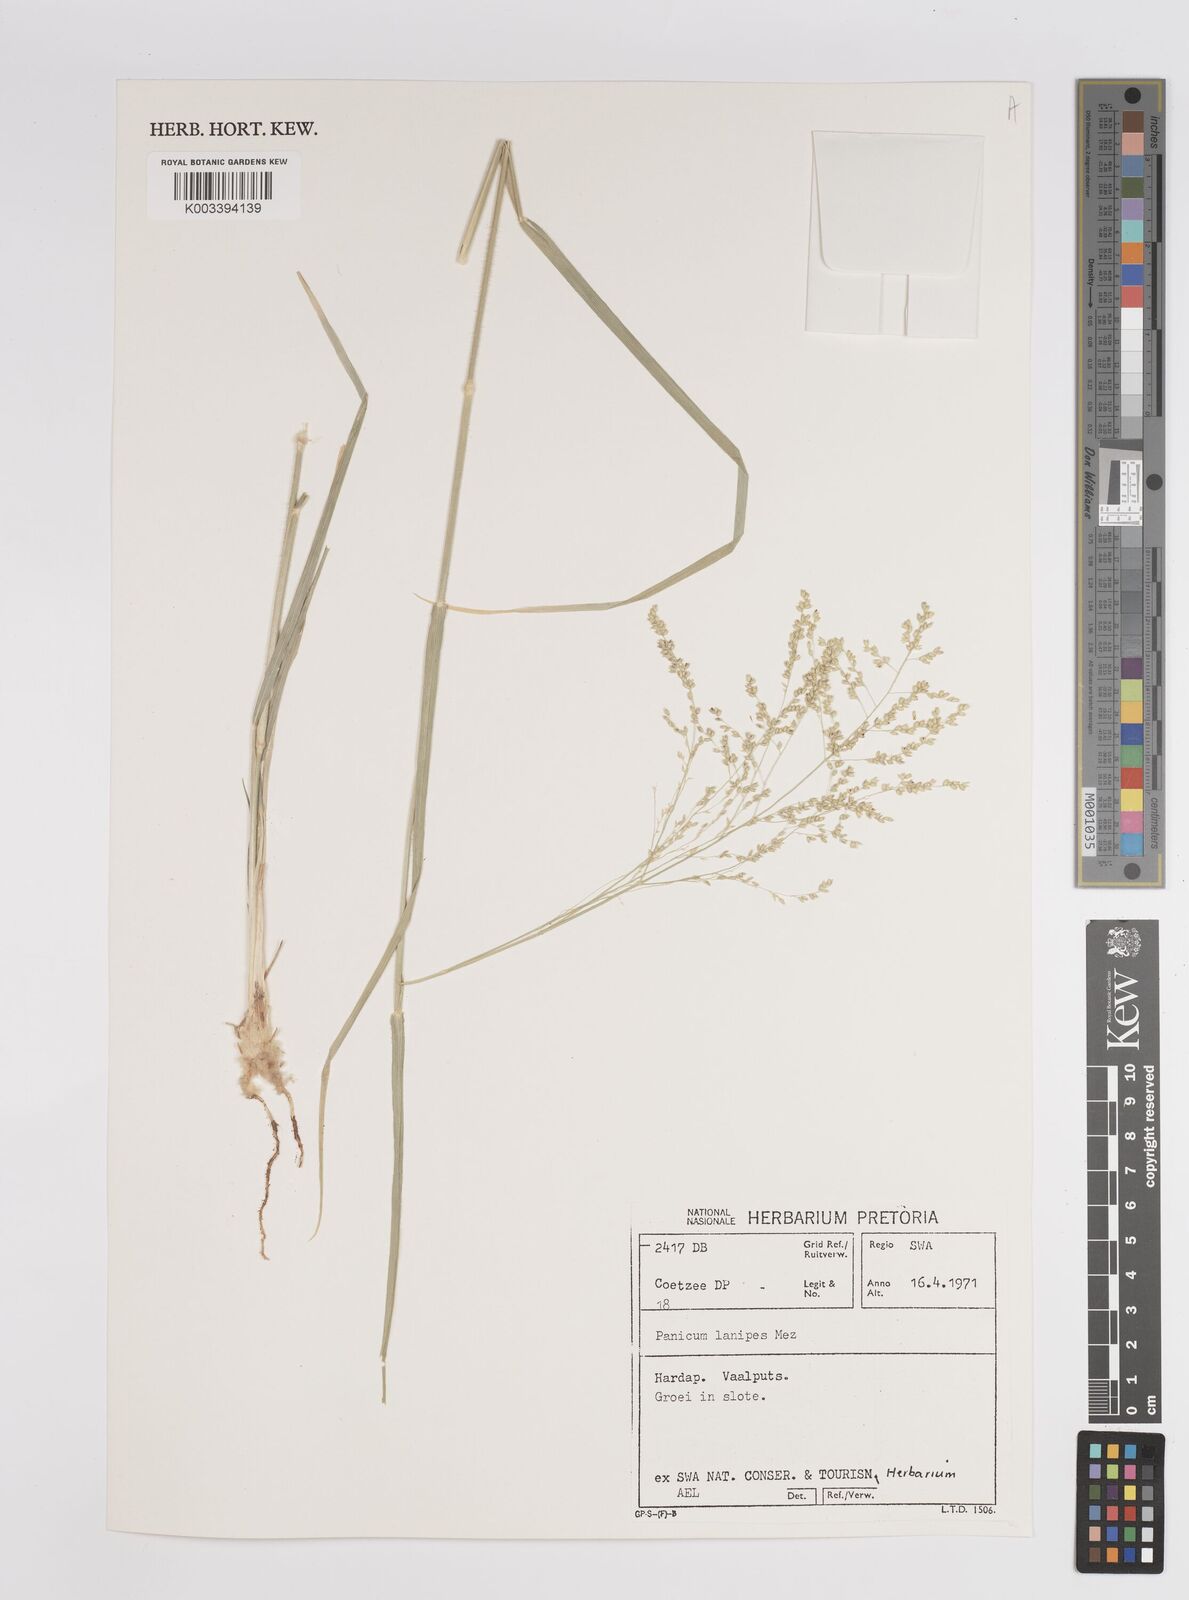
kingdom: Plantae
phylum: Tracheophyta
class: Liliopsida
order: Poales
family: Poaceae
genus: Panicum
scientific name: Panicum lanipes
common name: Wolvoet panicum
